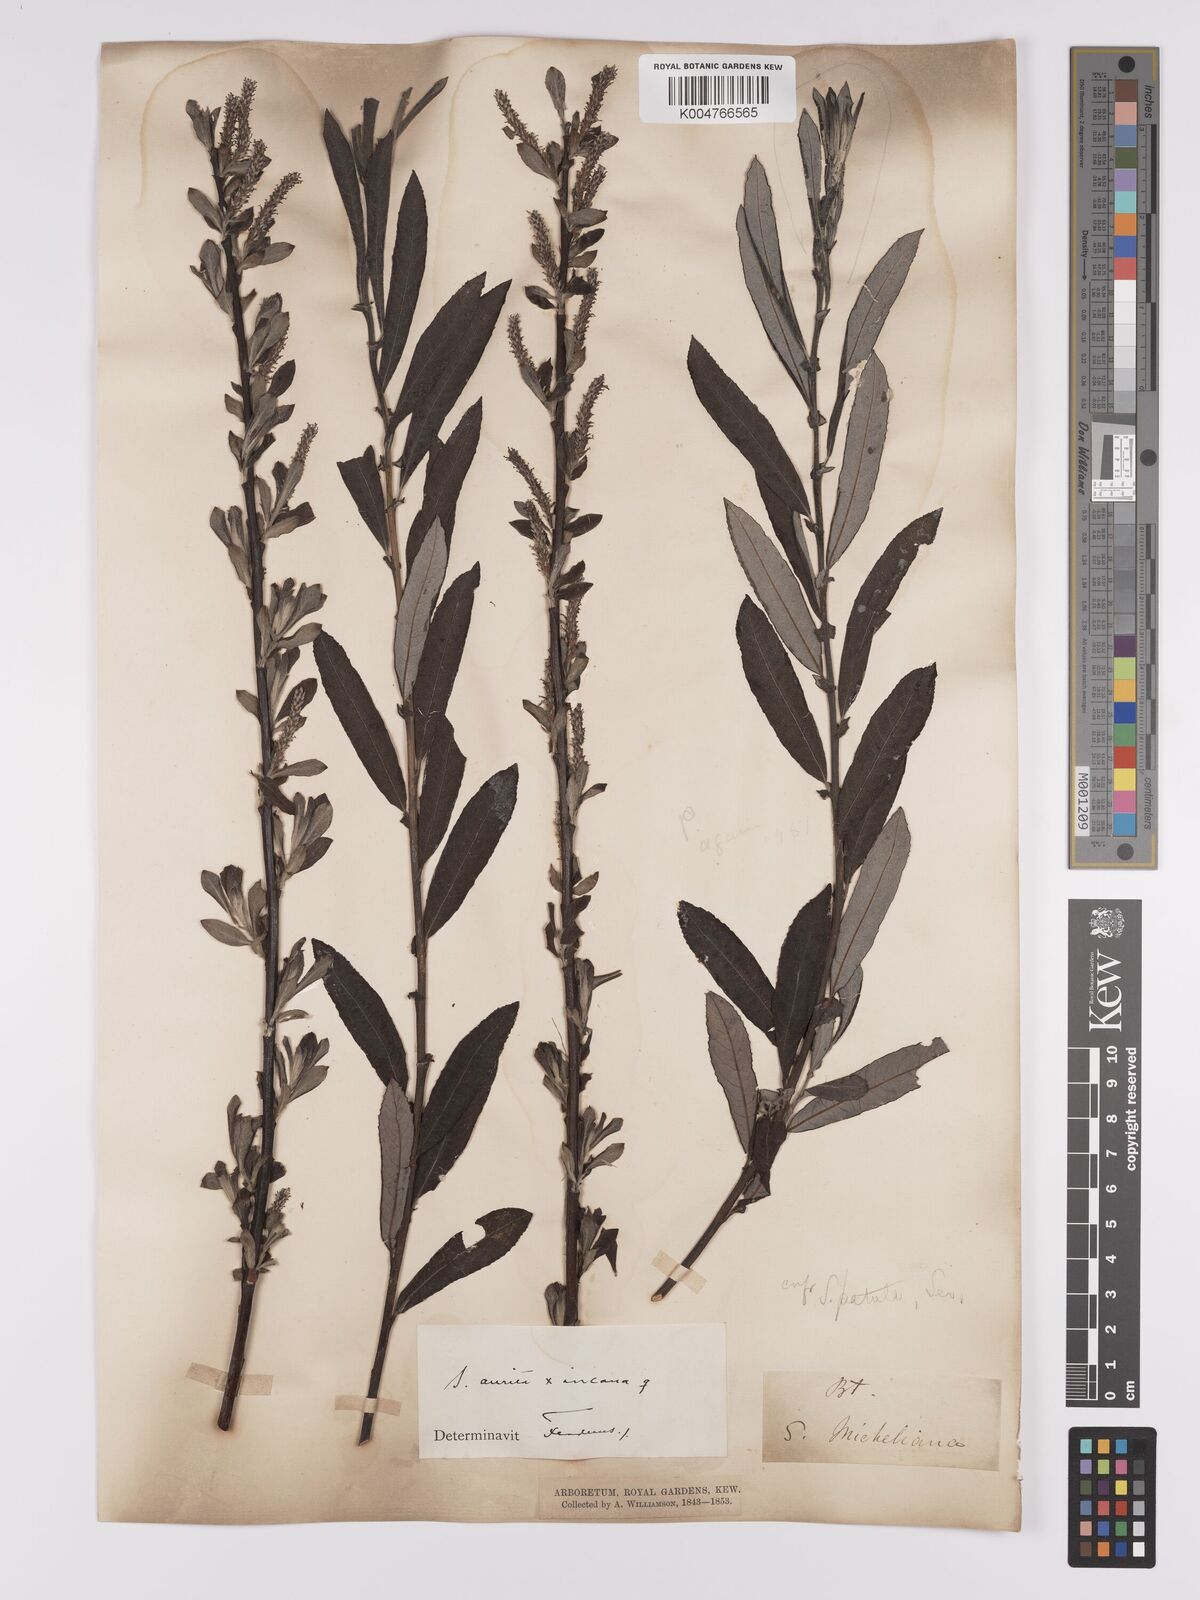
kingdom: Plantae
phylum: Tracheophyta
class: Magnoliopsida
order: Malpighiales
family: Salicaceae
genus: Salix
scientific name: Salix
